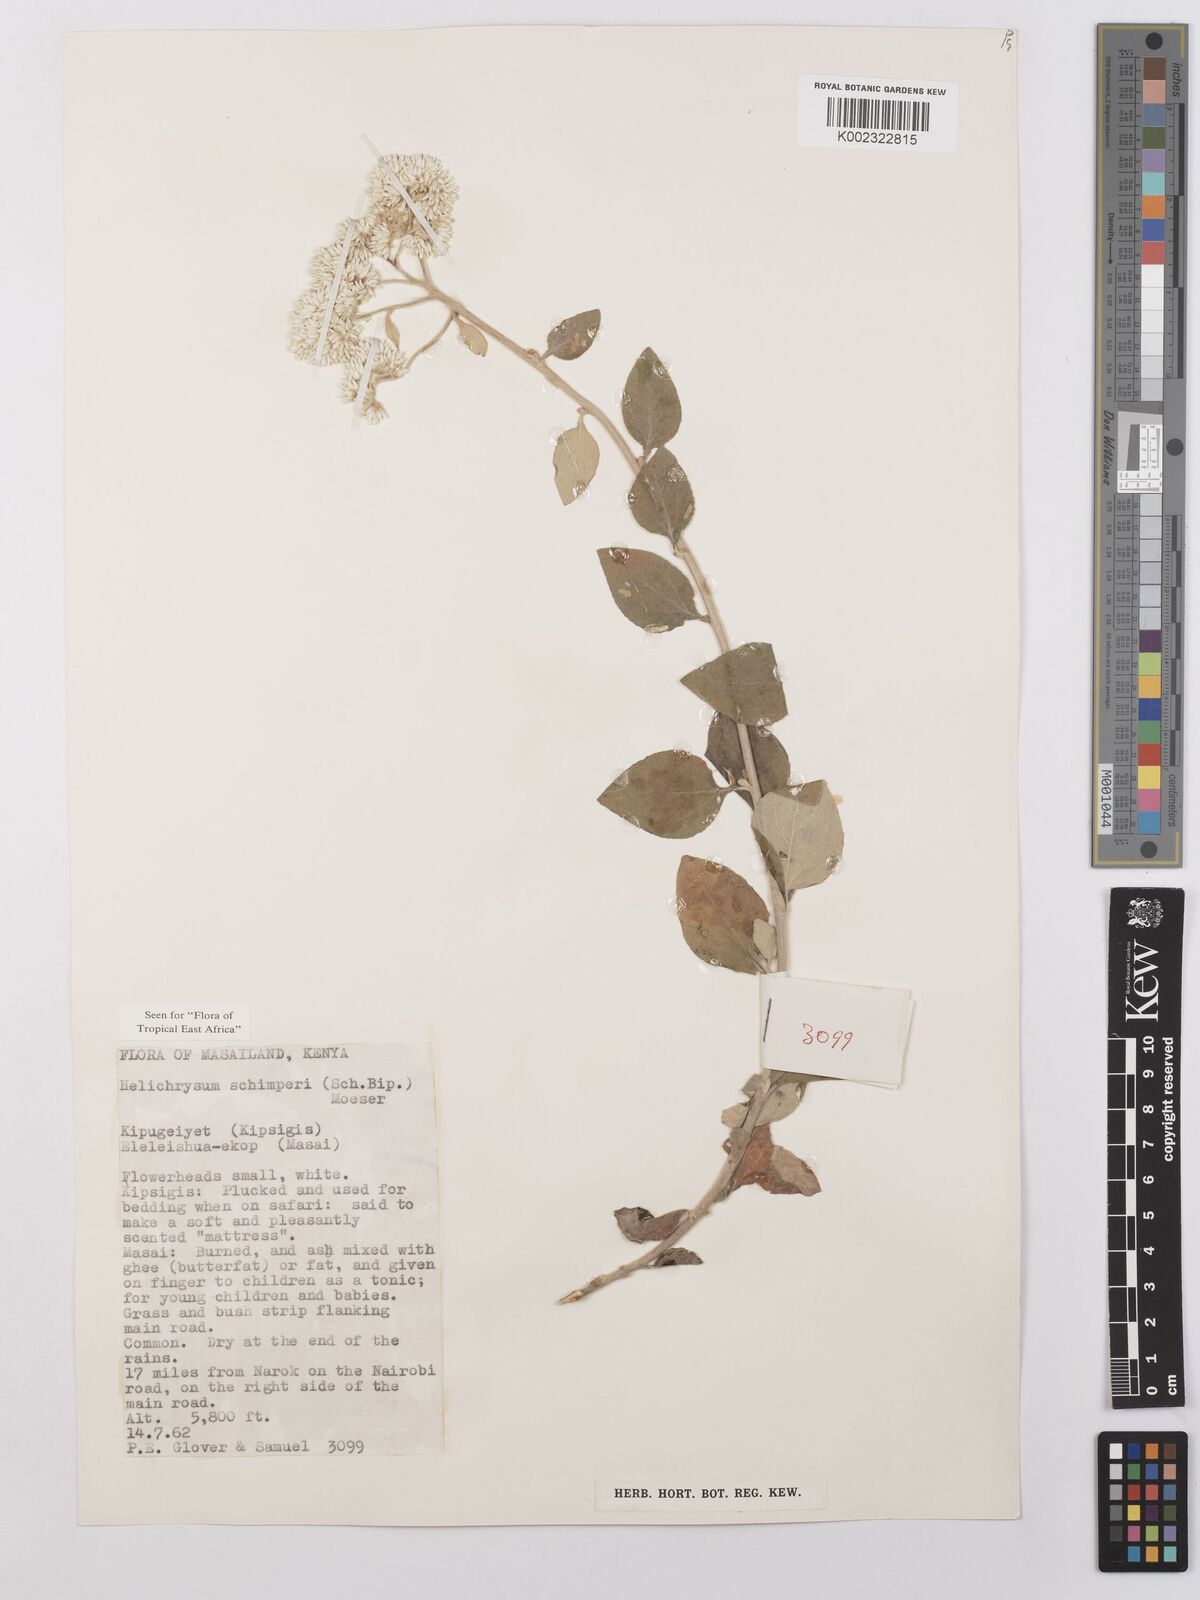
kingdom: Plantae
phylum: Tracheophyta
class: Magnoliopsida
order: Asterales
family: Asteraceae
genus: Helichrysum
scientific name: Helichrysum schimperi
